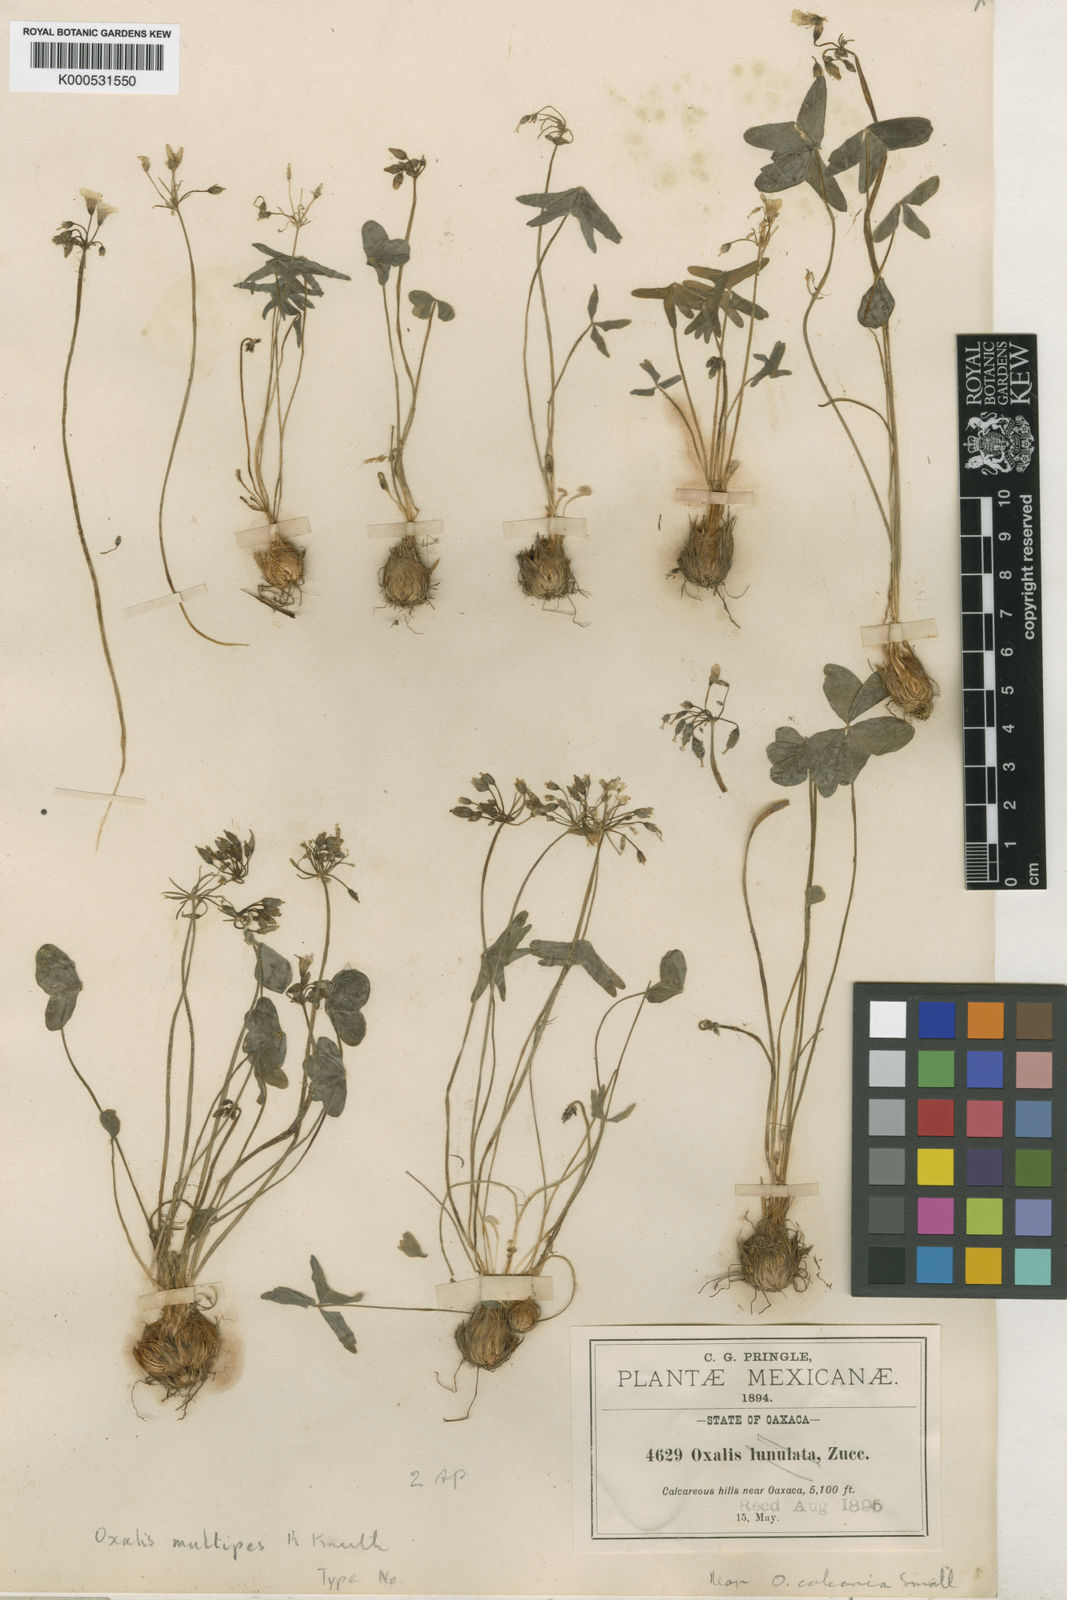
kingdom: Plantae
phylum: Tracheophyta
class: Magnoliopsida
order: Oxalidales
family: Oxalidaceae
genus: Oxalis
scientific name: Oxalis latifolia
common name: Garden pink-sorrel
